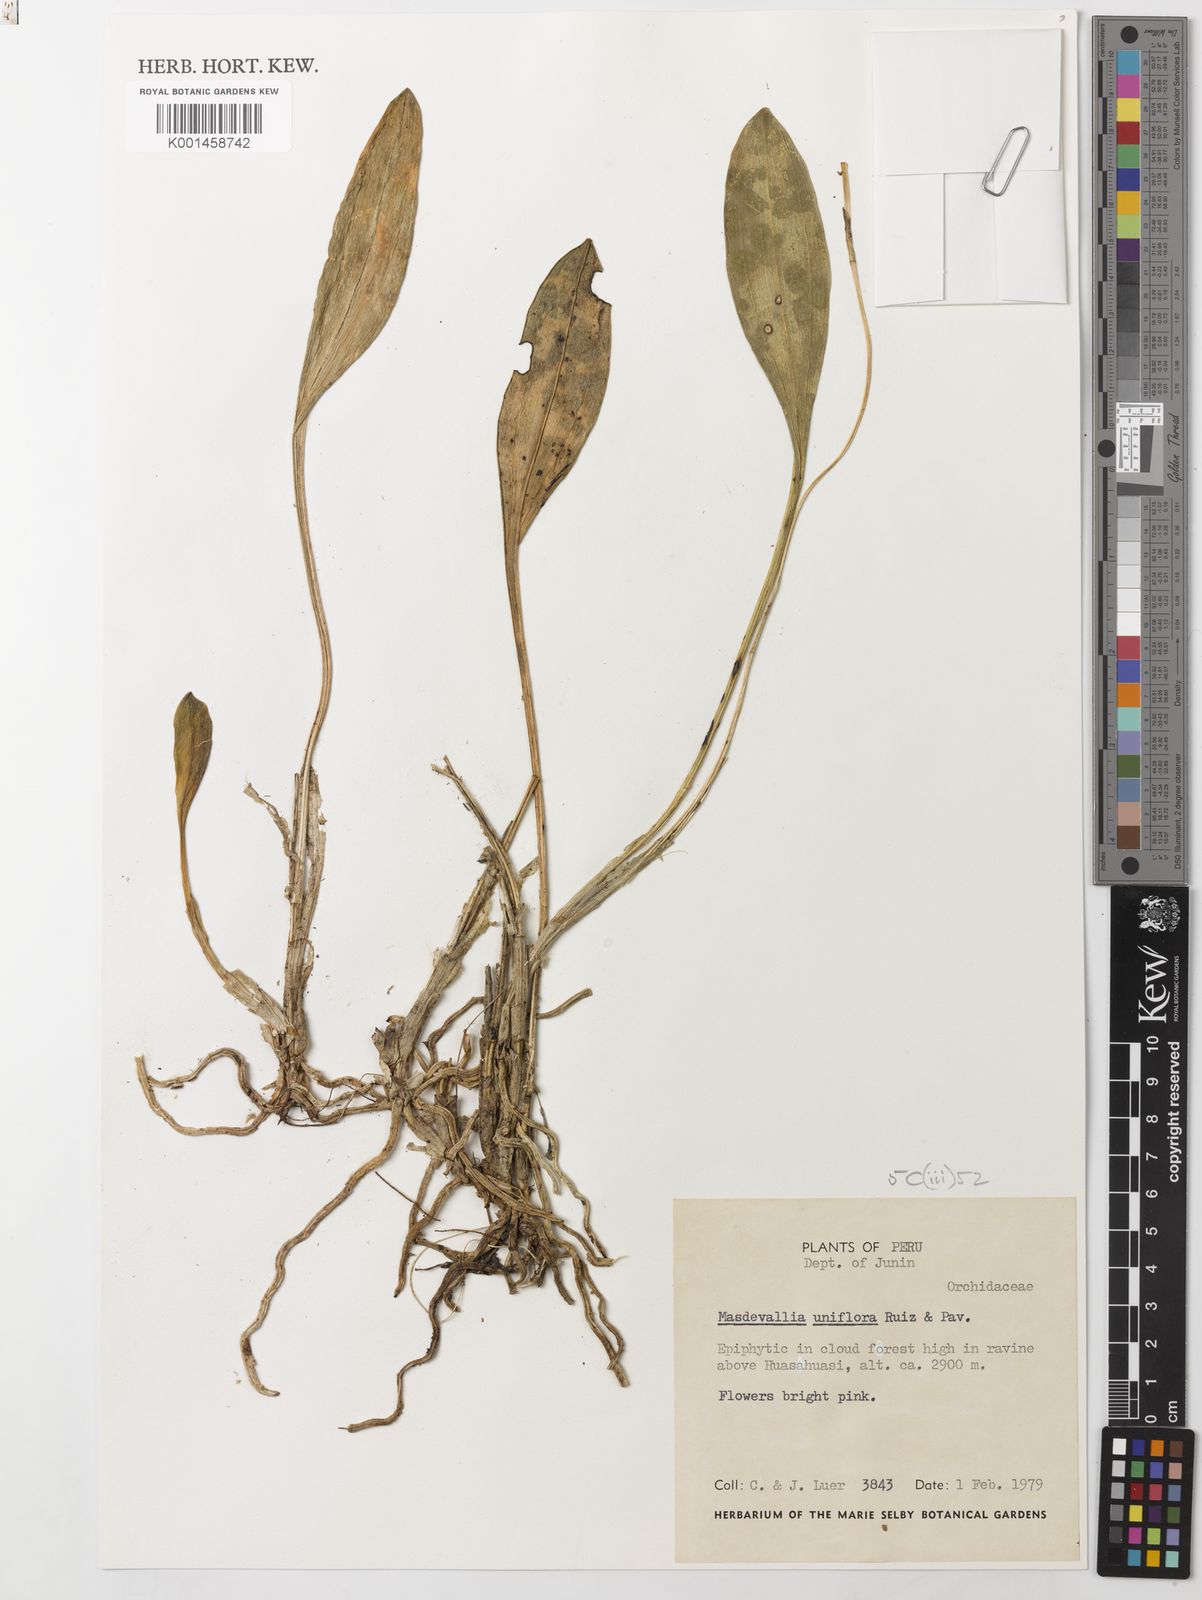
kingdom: Plantae
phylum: Tracheophyta
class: Liliopsida
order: Asparagales
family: Orchidaceae
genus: Masdevallia
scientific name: Masdevallia uniflora
